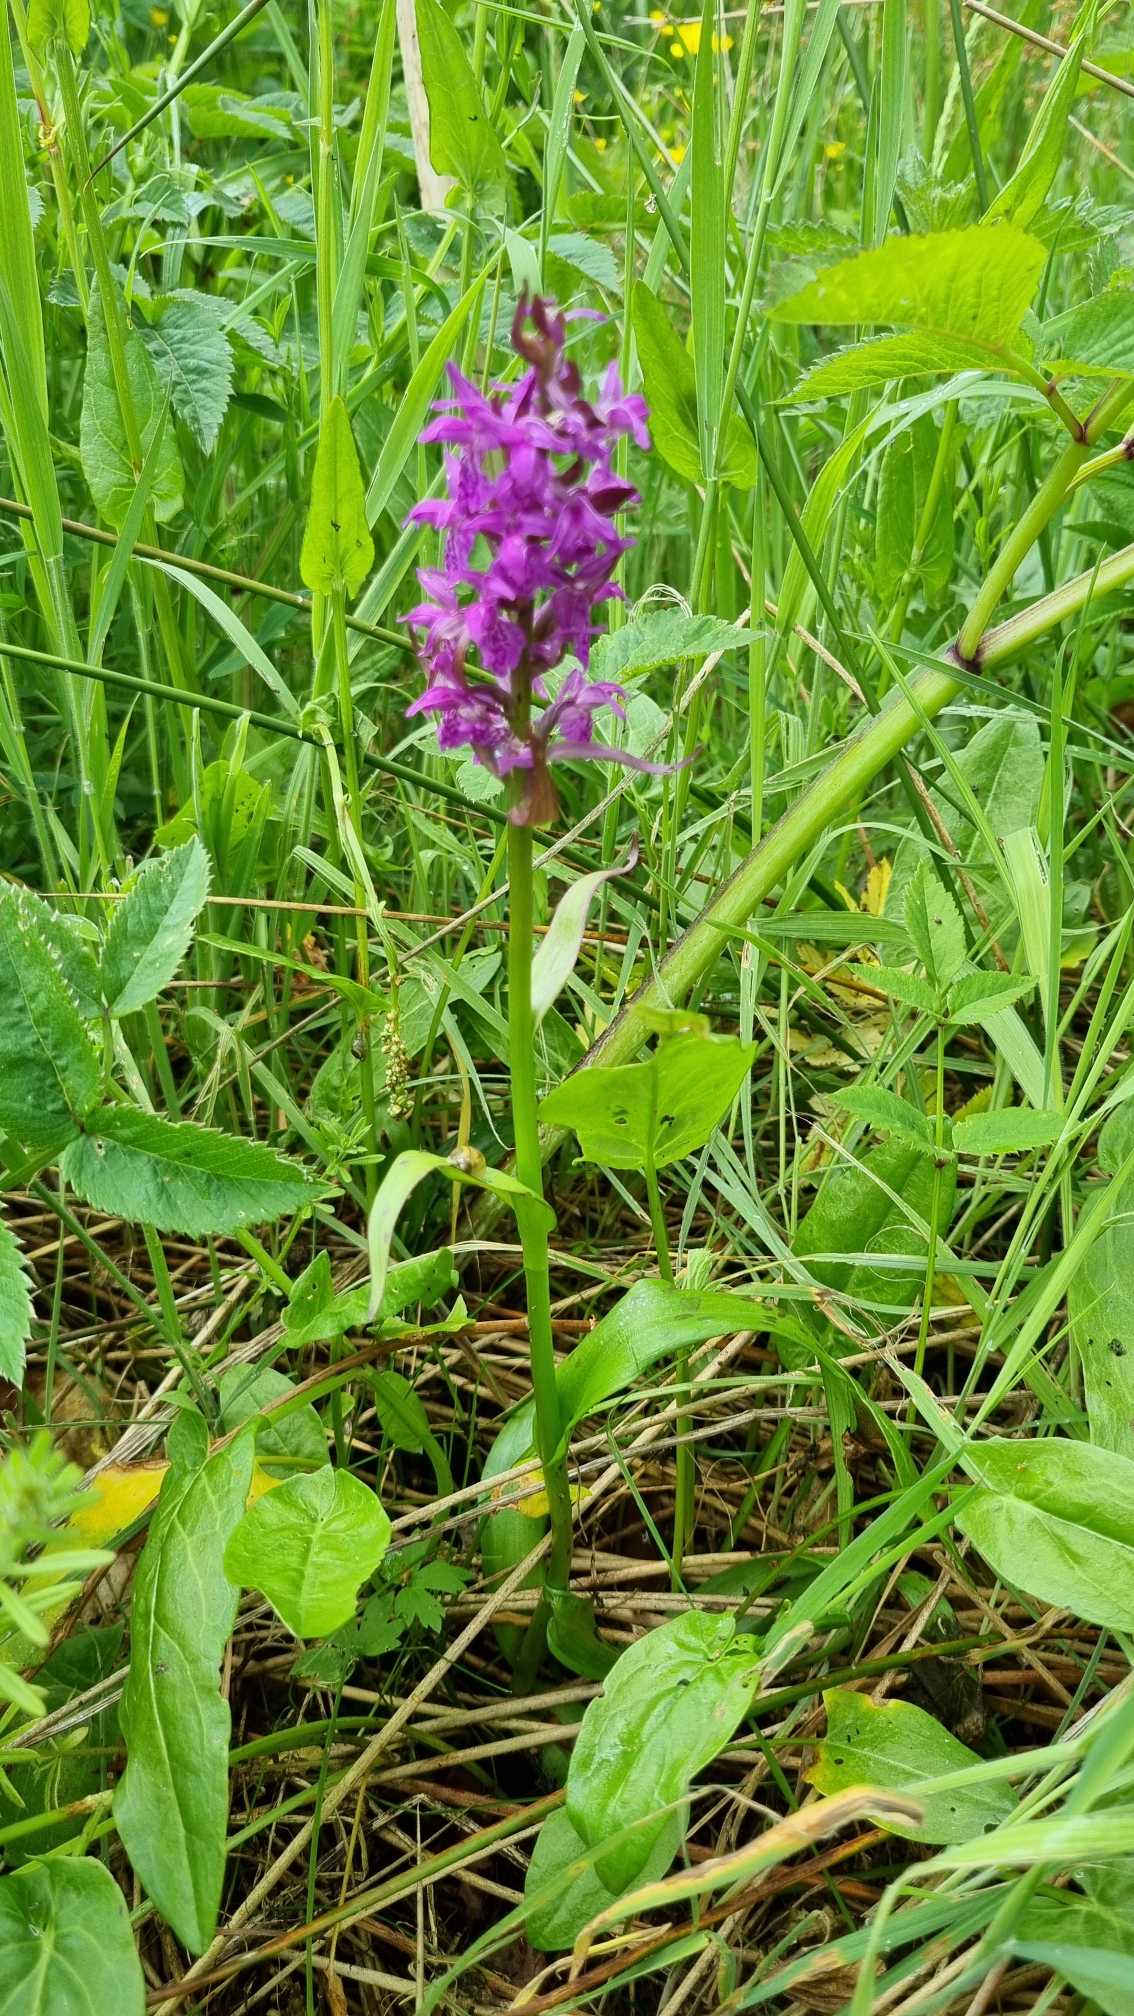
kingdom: Plantae
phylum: Tracheophyta
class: Liliopsida
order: Asparagales
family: Orchidaceae
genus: Dactylorhiza
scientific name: Dactylorhiza majalis
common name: Maj-gøgeurt
